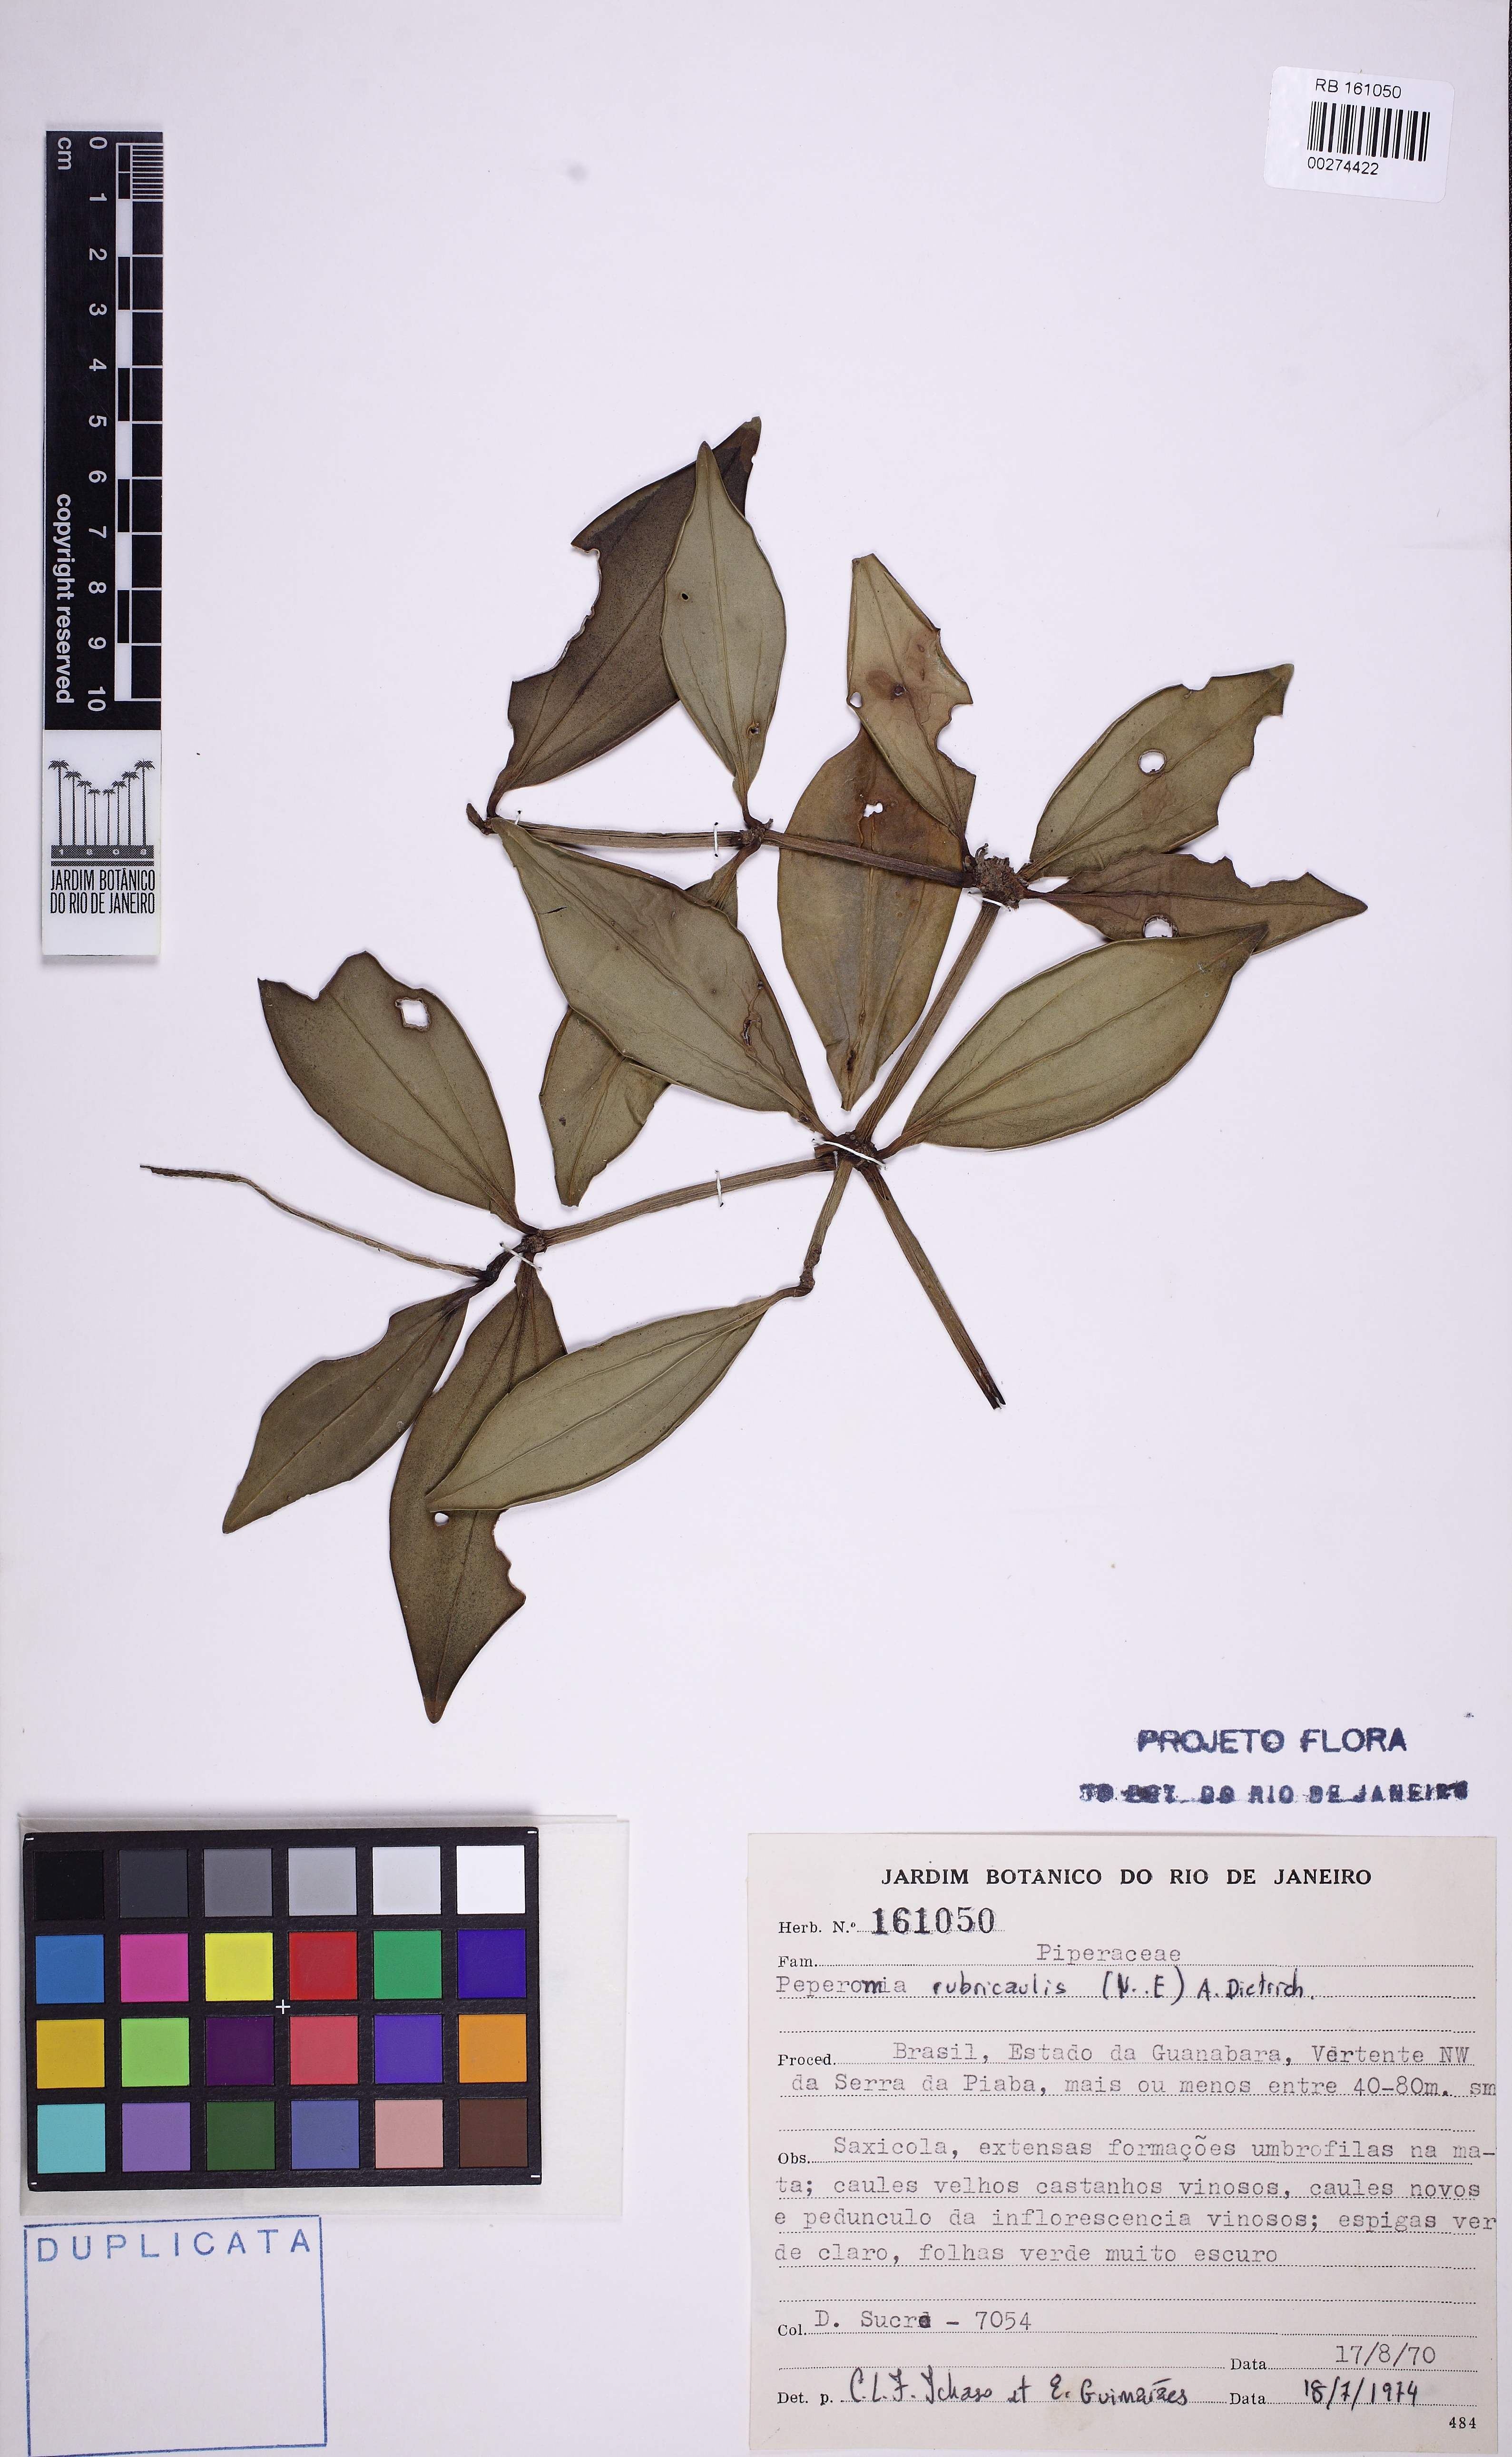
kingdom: Plantae
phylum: Tracheophyta
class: Magnoliopsida
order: Piperales
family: Piperaceae
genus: Peperomia
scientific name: Peperomia rubricaulis
